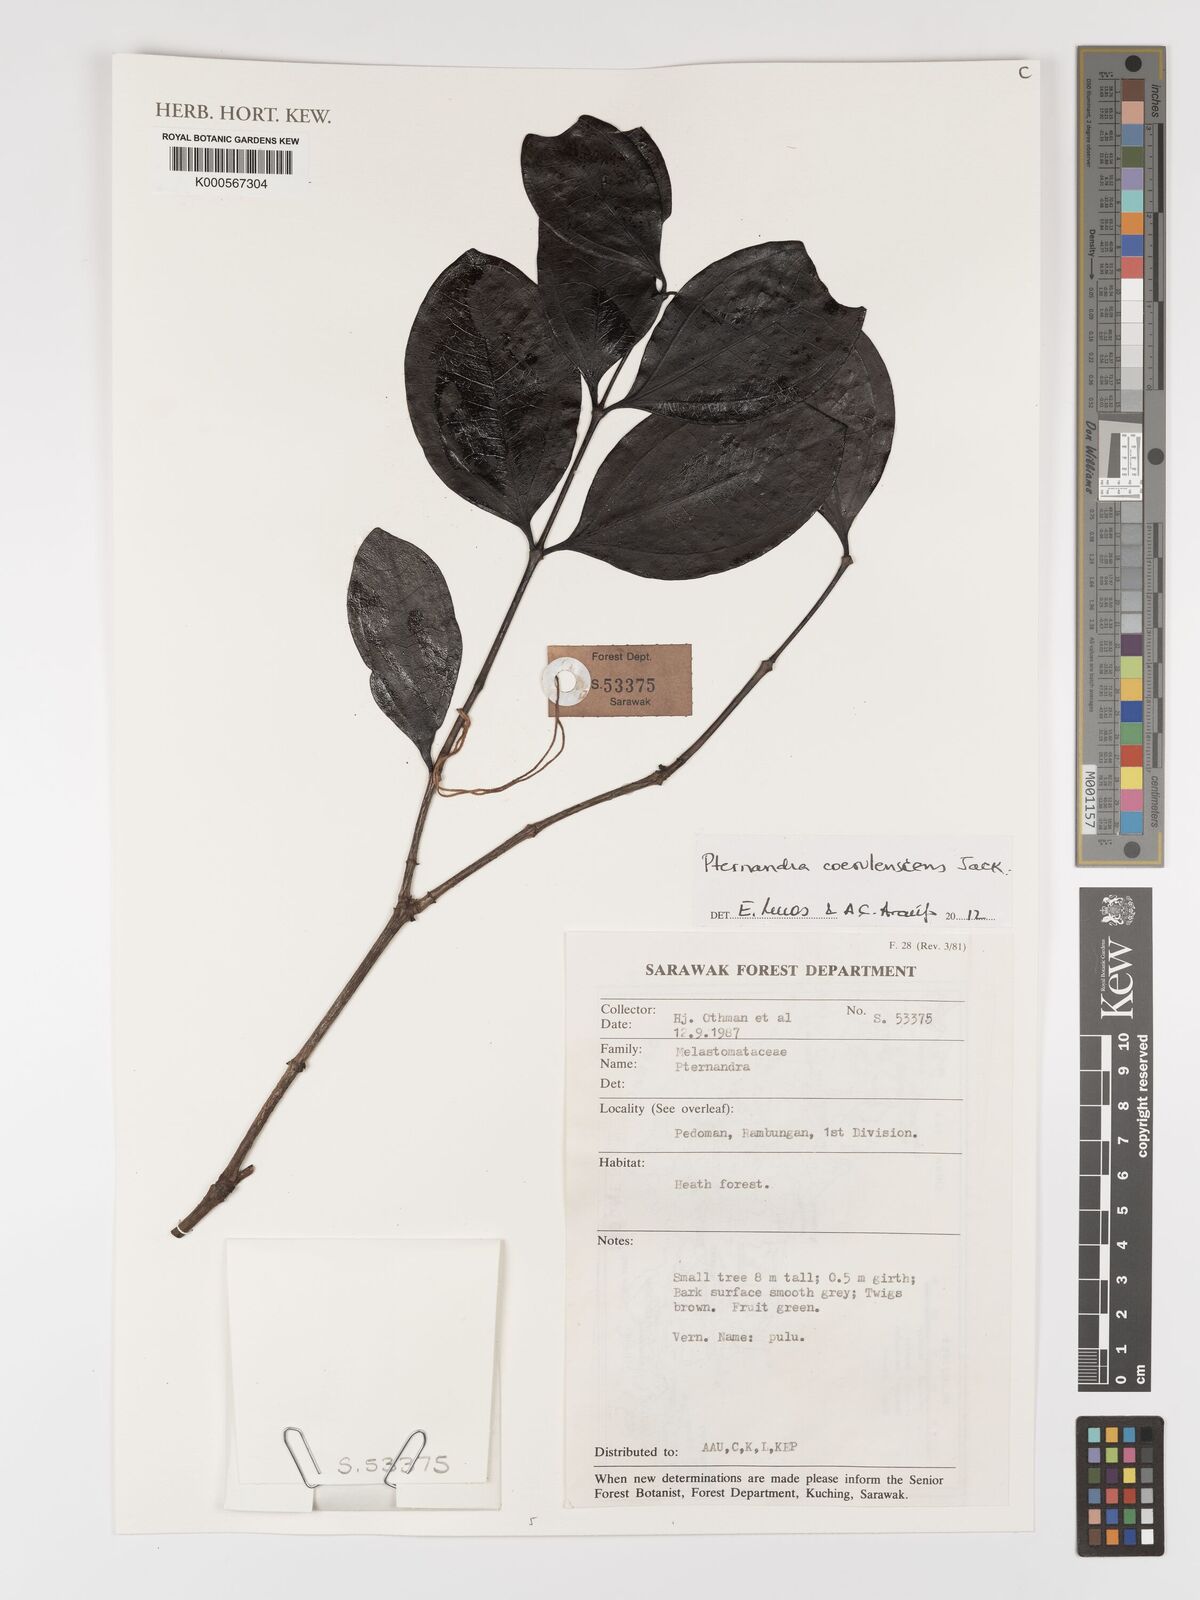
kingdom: Plantae
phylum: Tracheophyta
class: Magnoliopsida
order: Myrtales
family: Melastomataceae
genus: Pternandra
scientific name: Pternandra
